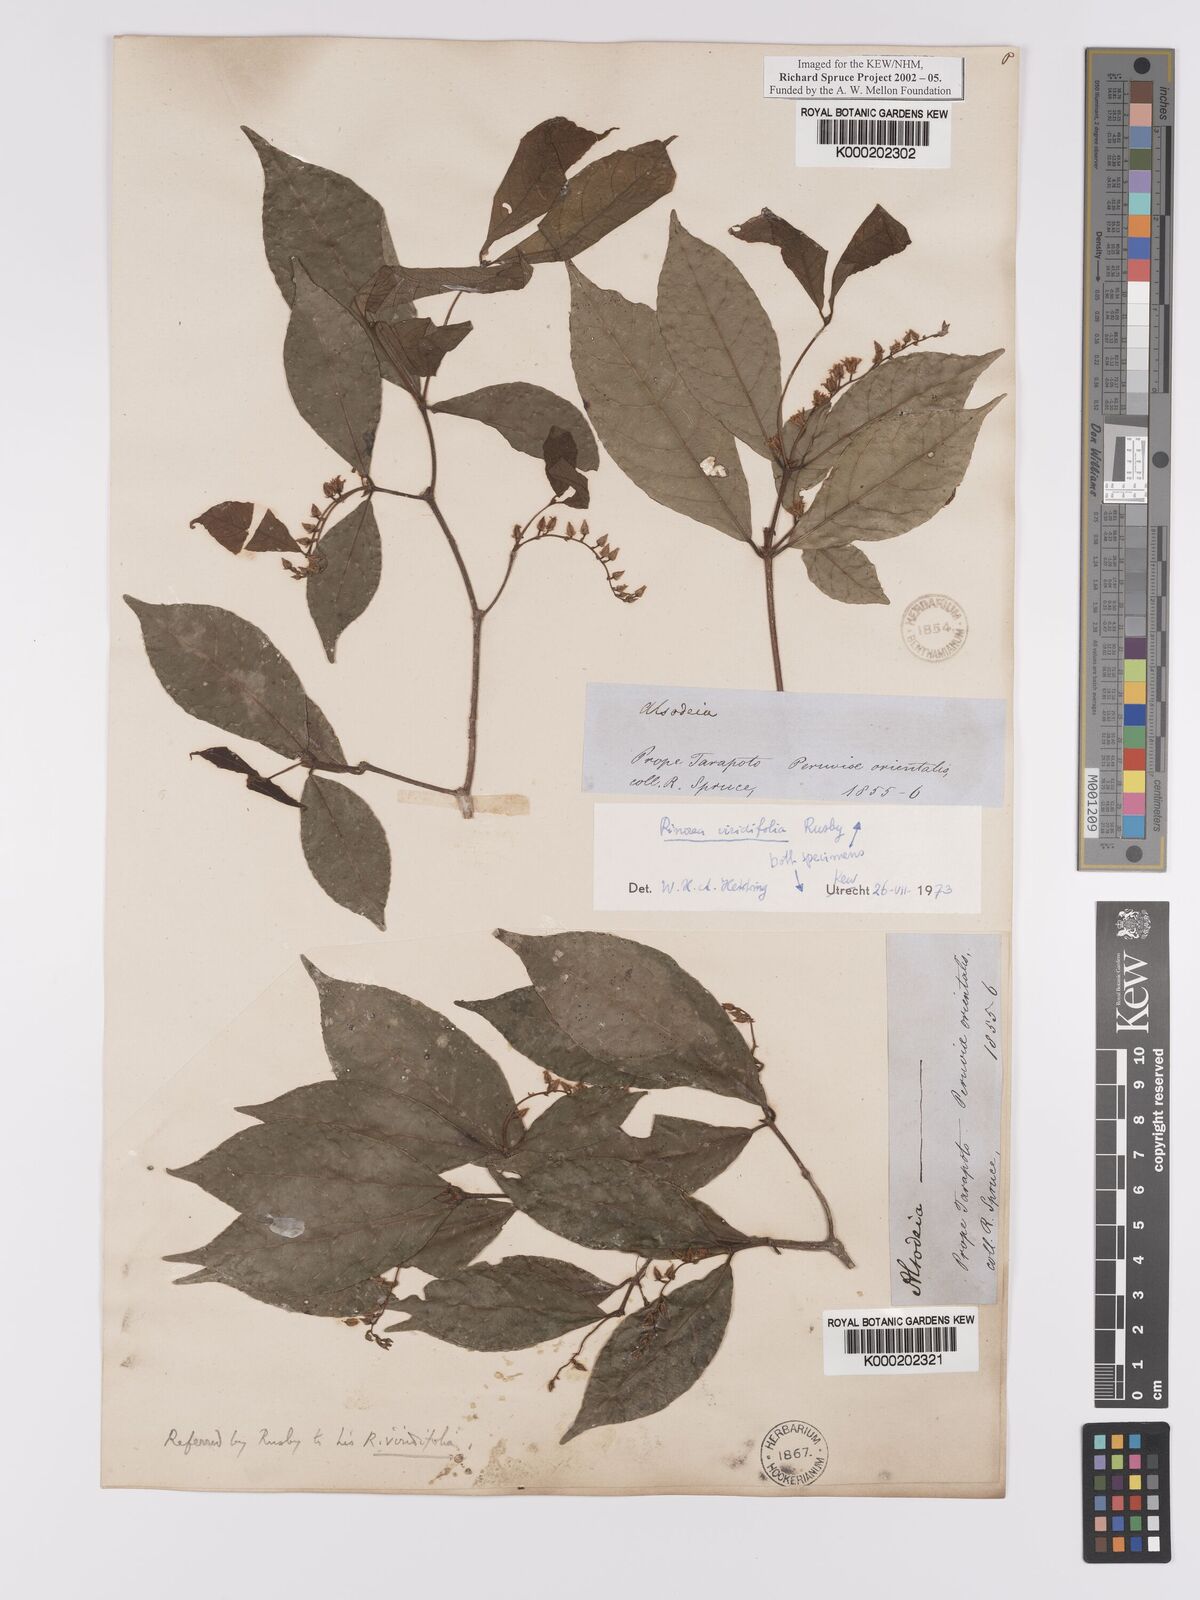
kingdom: Plantae
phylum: Tracheophyta
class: Magnoliopsida
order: Malpighiales
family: Violaceae
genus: Rinorea
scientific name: Rinorea viridifolia
